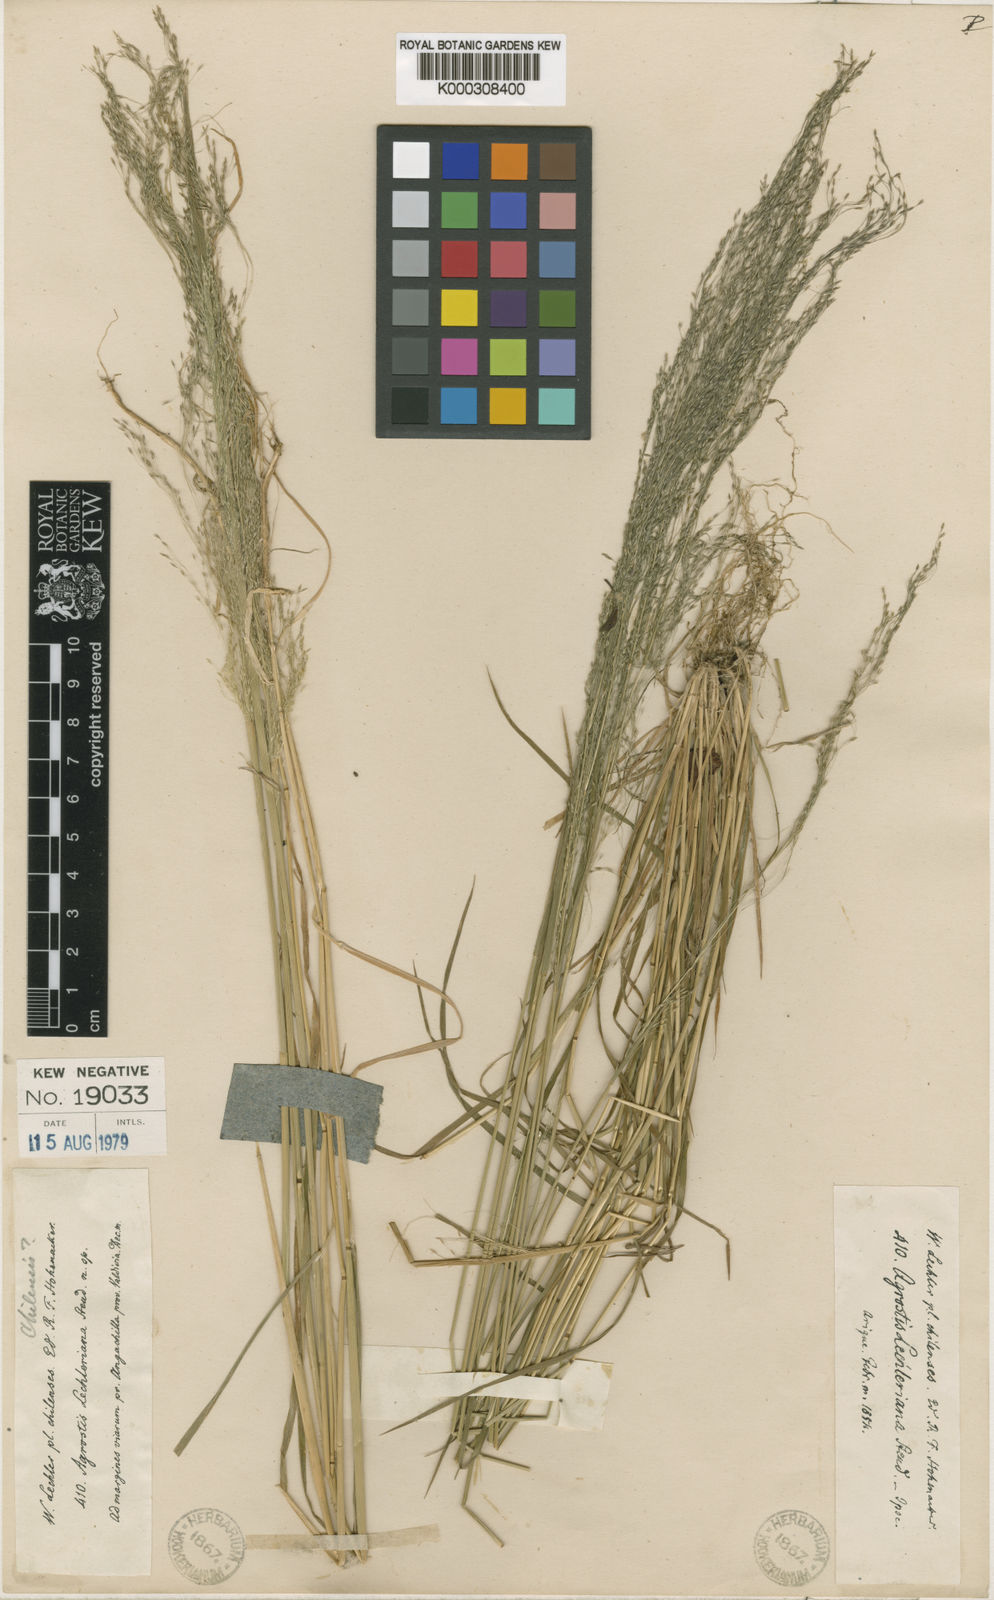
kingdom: Plantae
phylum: Tracheophyta
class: Liliopsida
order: Poales
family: Poaceae
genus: Agrostis
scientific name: Agrostis leptotricha
